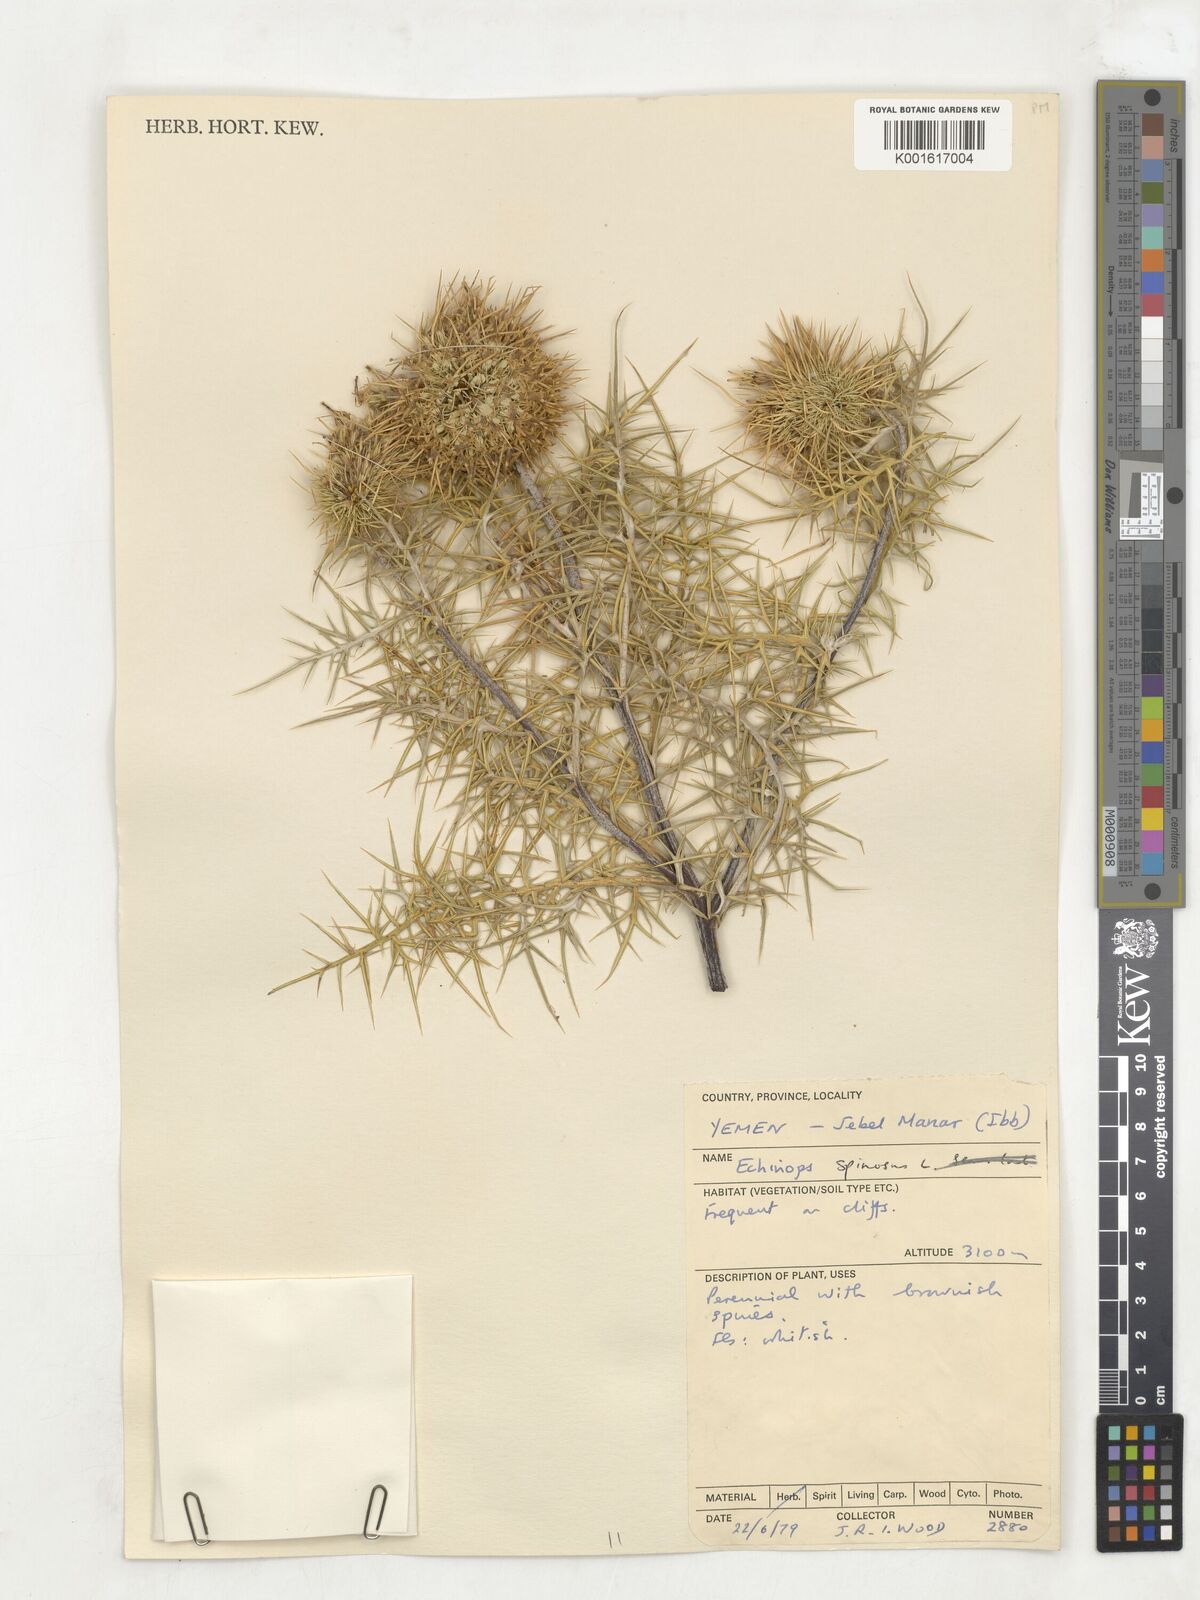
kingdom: Plantae
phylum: Tracheophyta
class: Magnoliopsida
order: Asterales
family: Asteraceae
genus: Echinops
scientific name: Echinops spinosissimus
